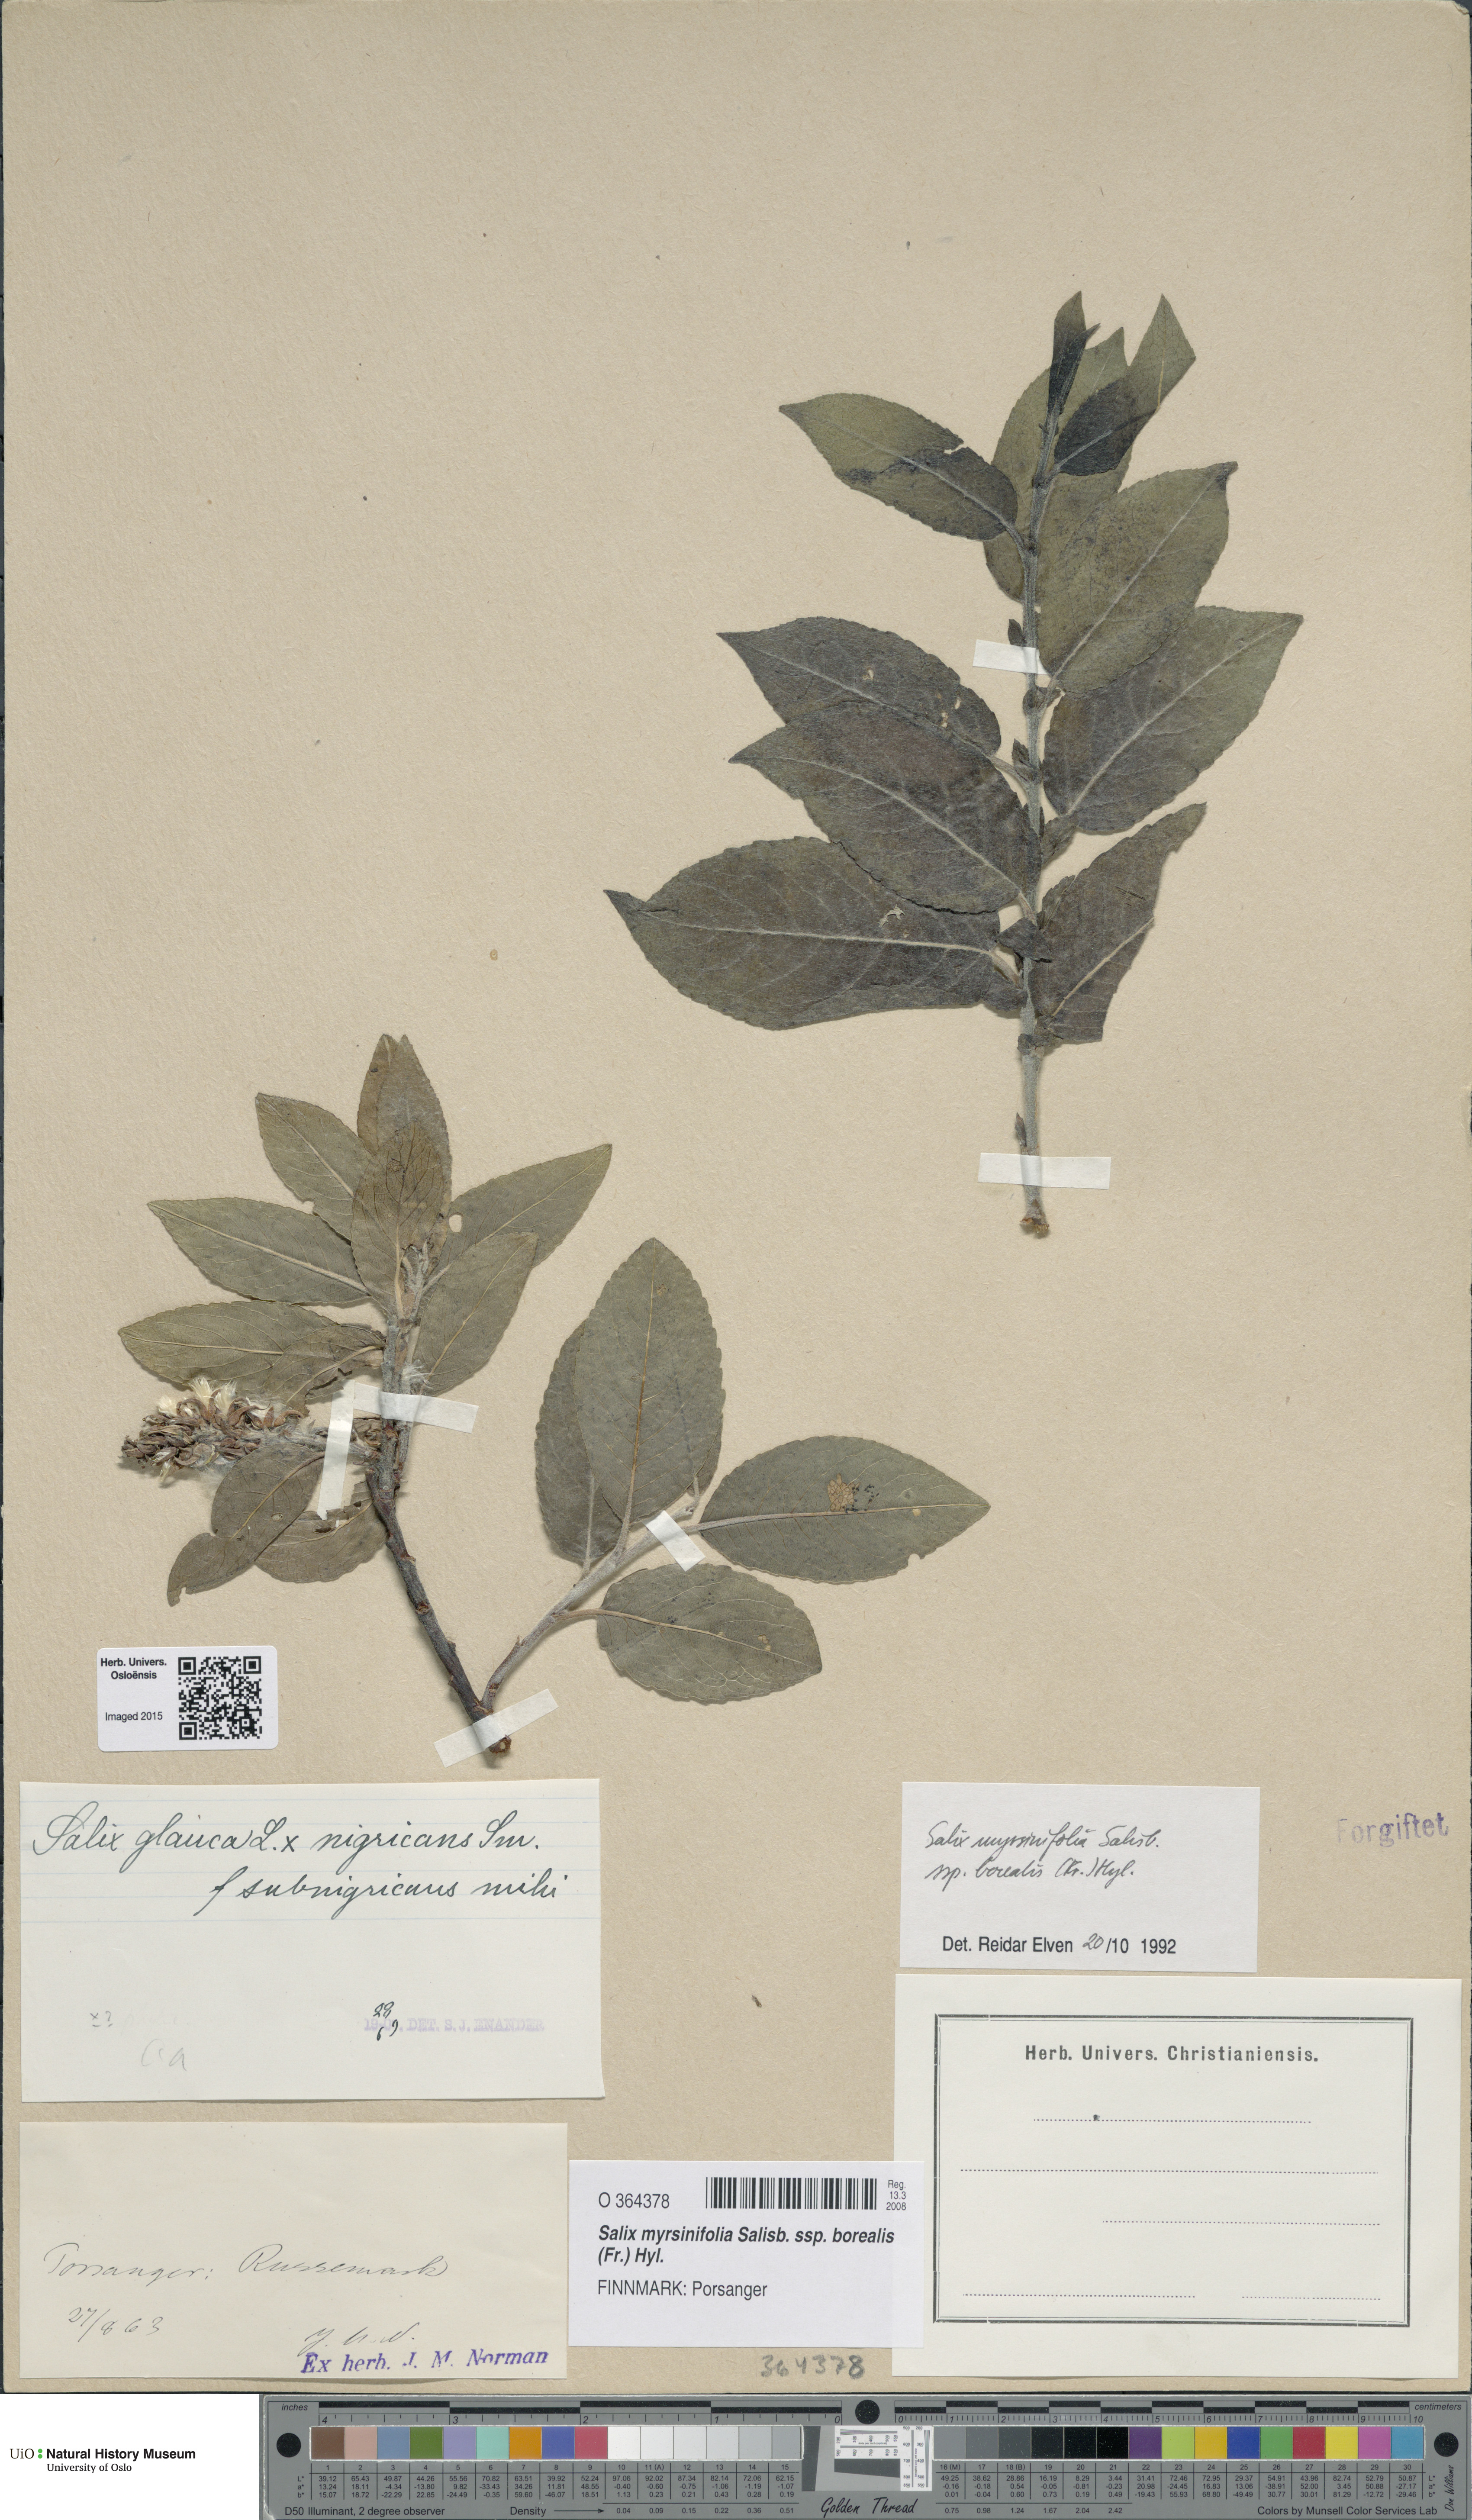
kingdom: Plantae
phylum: Tracheophyta
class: Magnoliopsida
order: Malpighiales
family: Salicaceae
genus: Salix
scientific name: Salix myrsinifolia
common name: Dark-leaved willow
